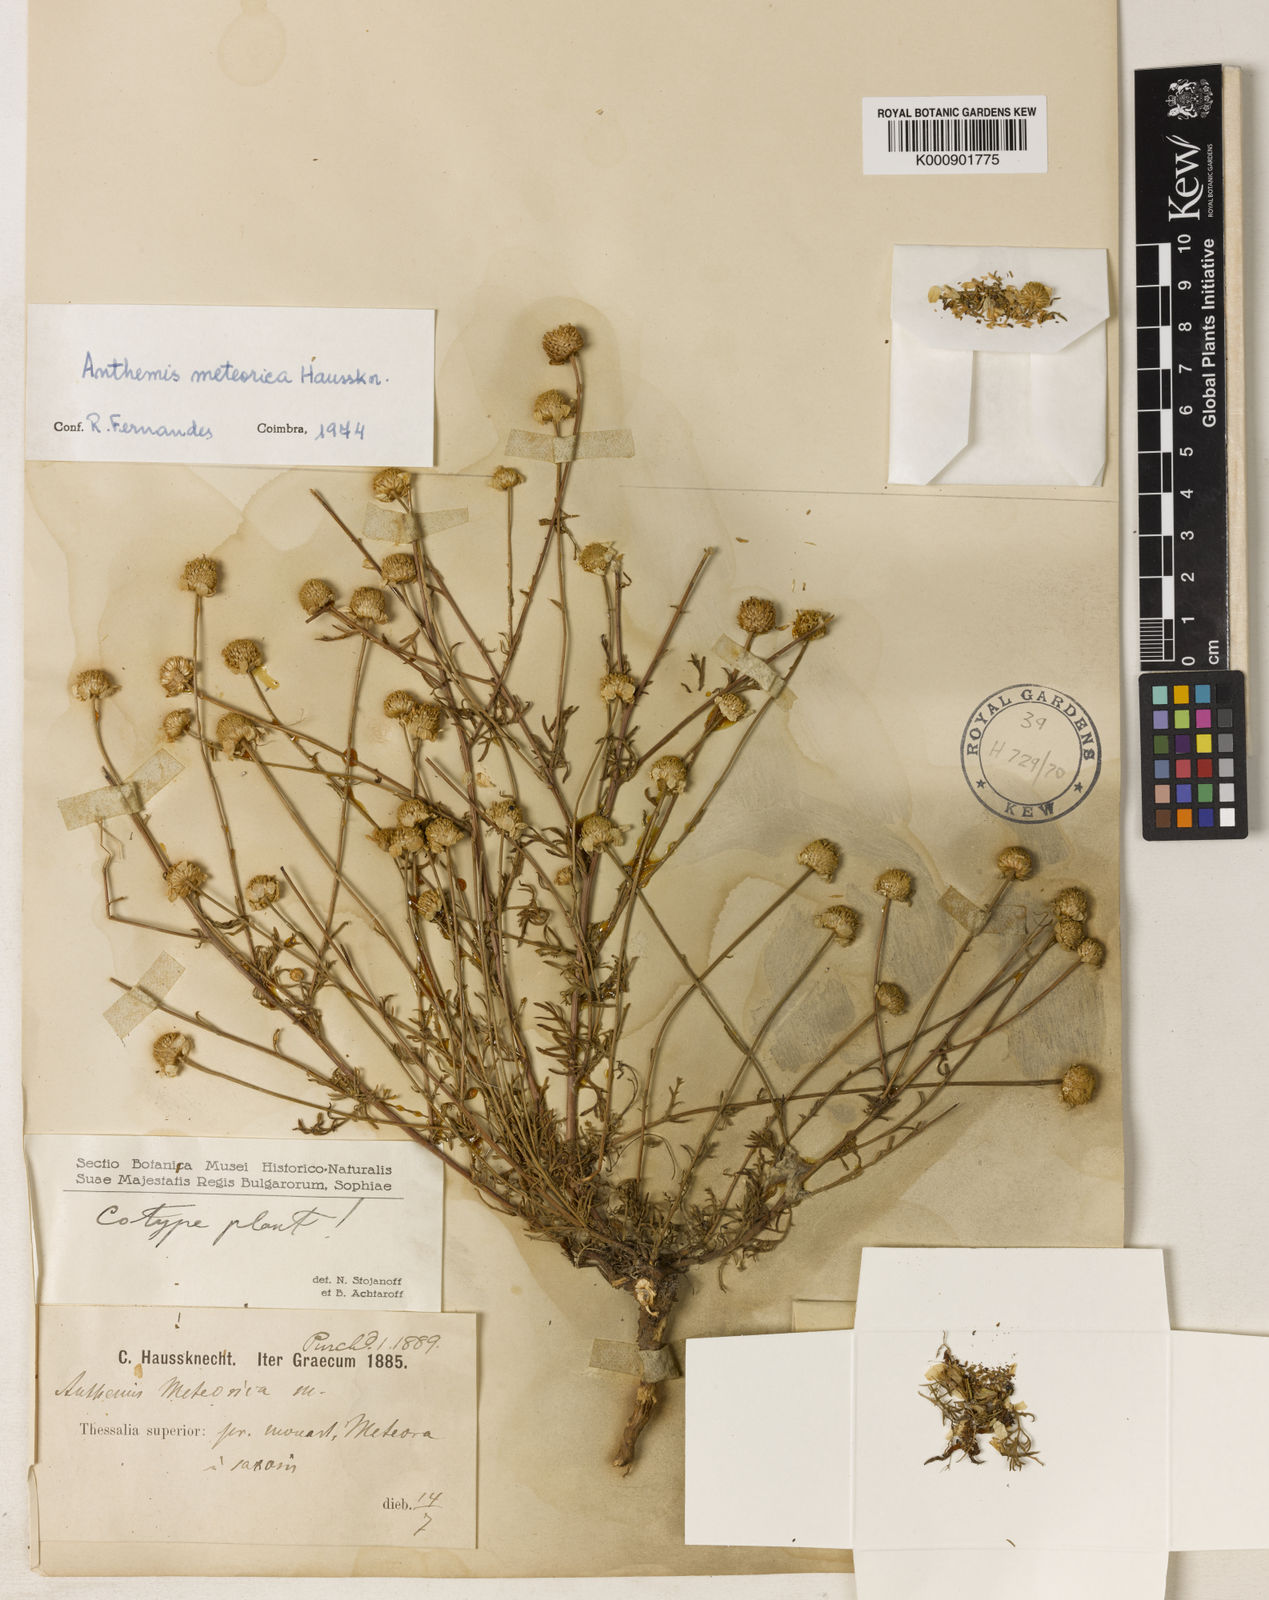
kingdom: Plantae
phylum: Tracheophyta
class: Magnoliopsida
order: Asterales
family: Asteraceae
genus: Anthemis
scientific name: Anthemis
